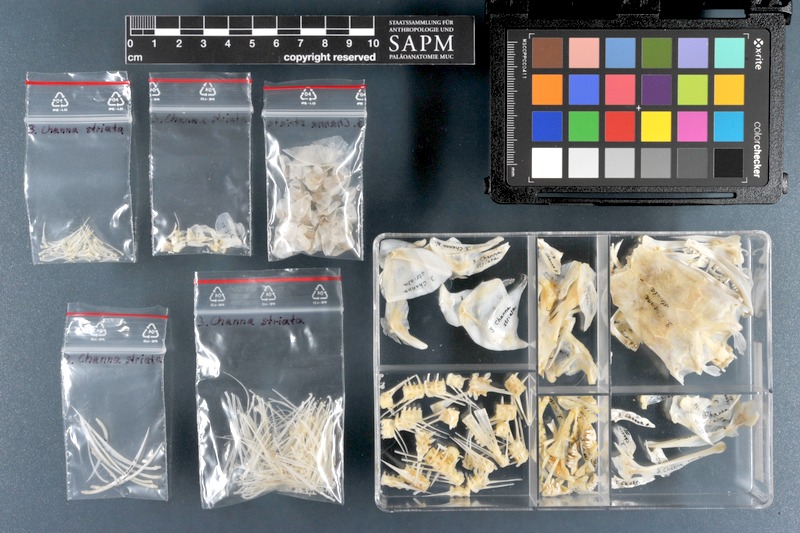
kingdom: Animalia
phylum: Chordata
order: Perciformes
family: Channidae
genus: Channa
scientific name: Channa striata
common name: Striped snakehead
